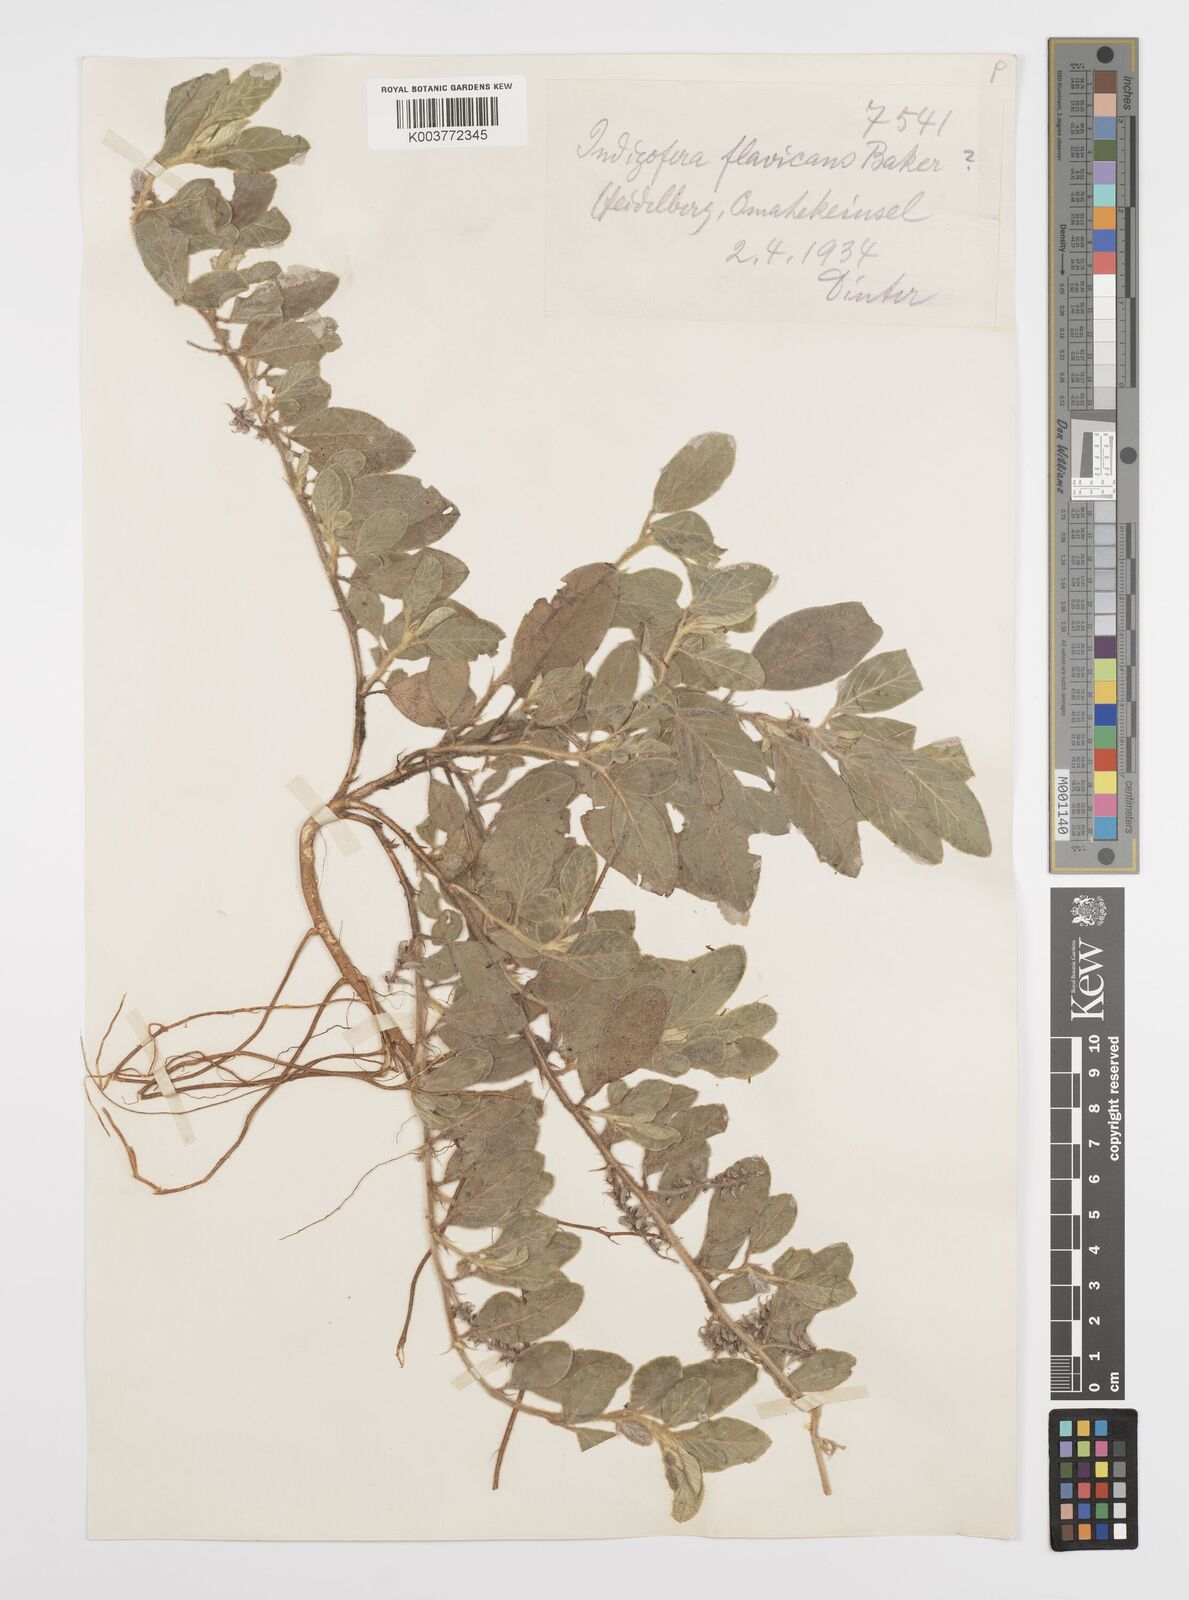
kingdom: Plantae
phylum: Tracheophyta
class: Magnoliopsida
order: Fabales
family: Fabaceae
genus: Indigofera
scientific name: Indigofera flavicans
